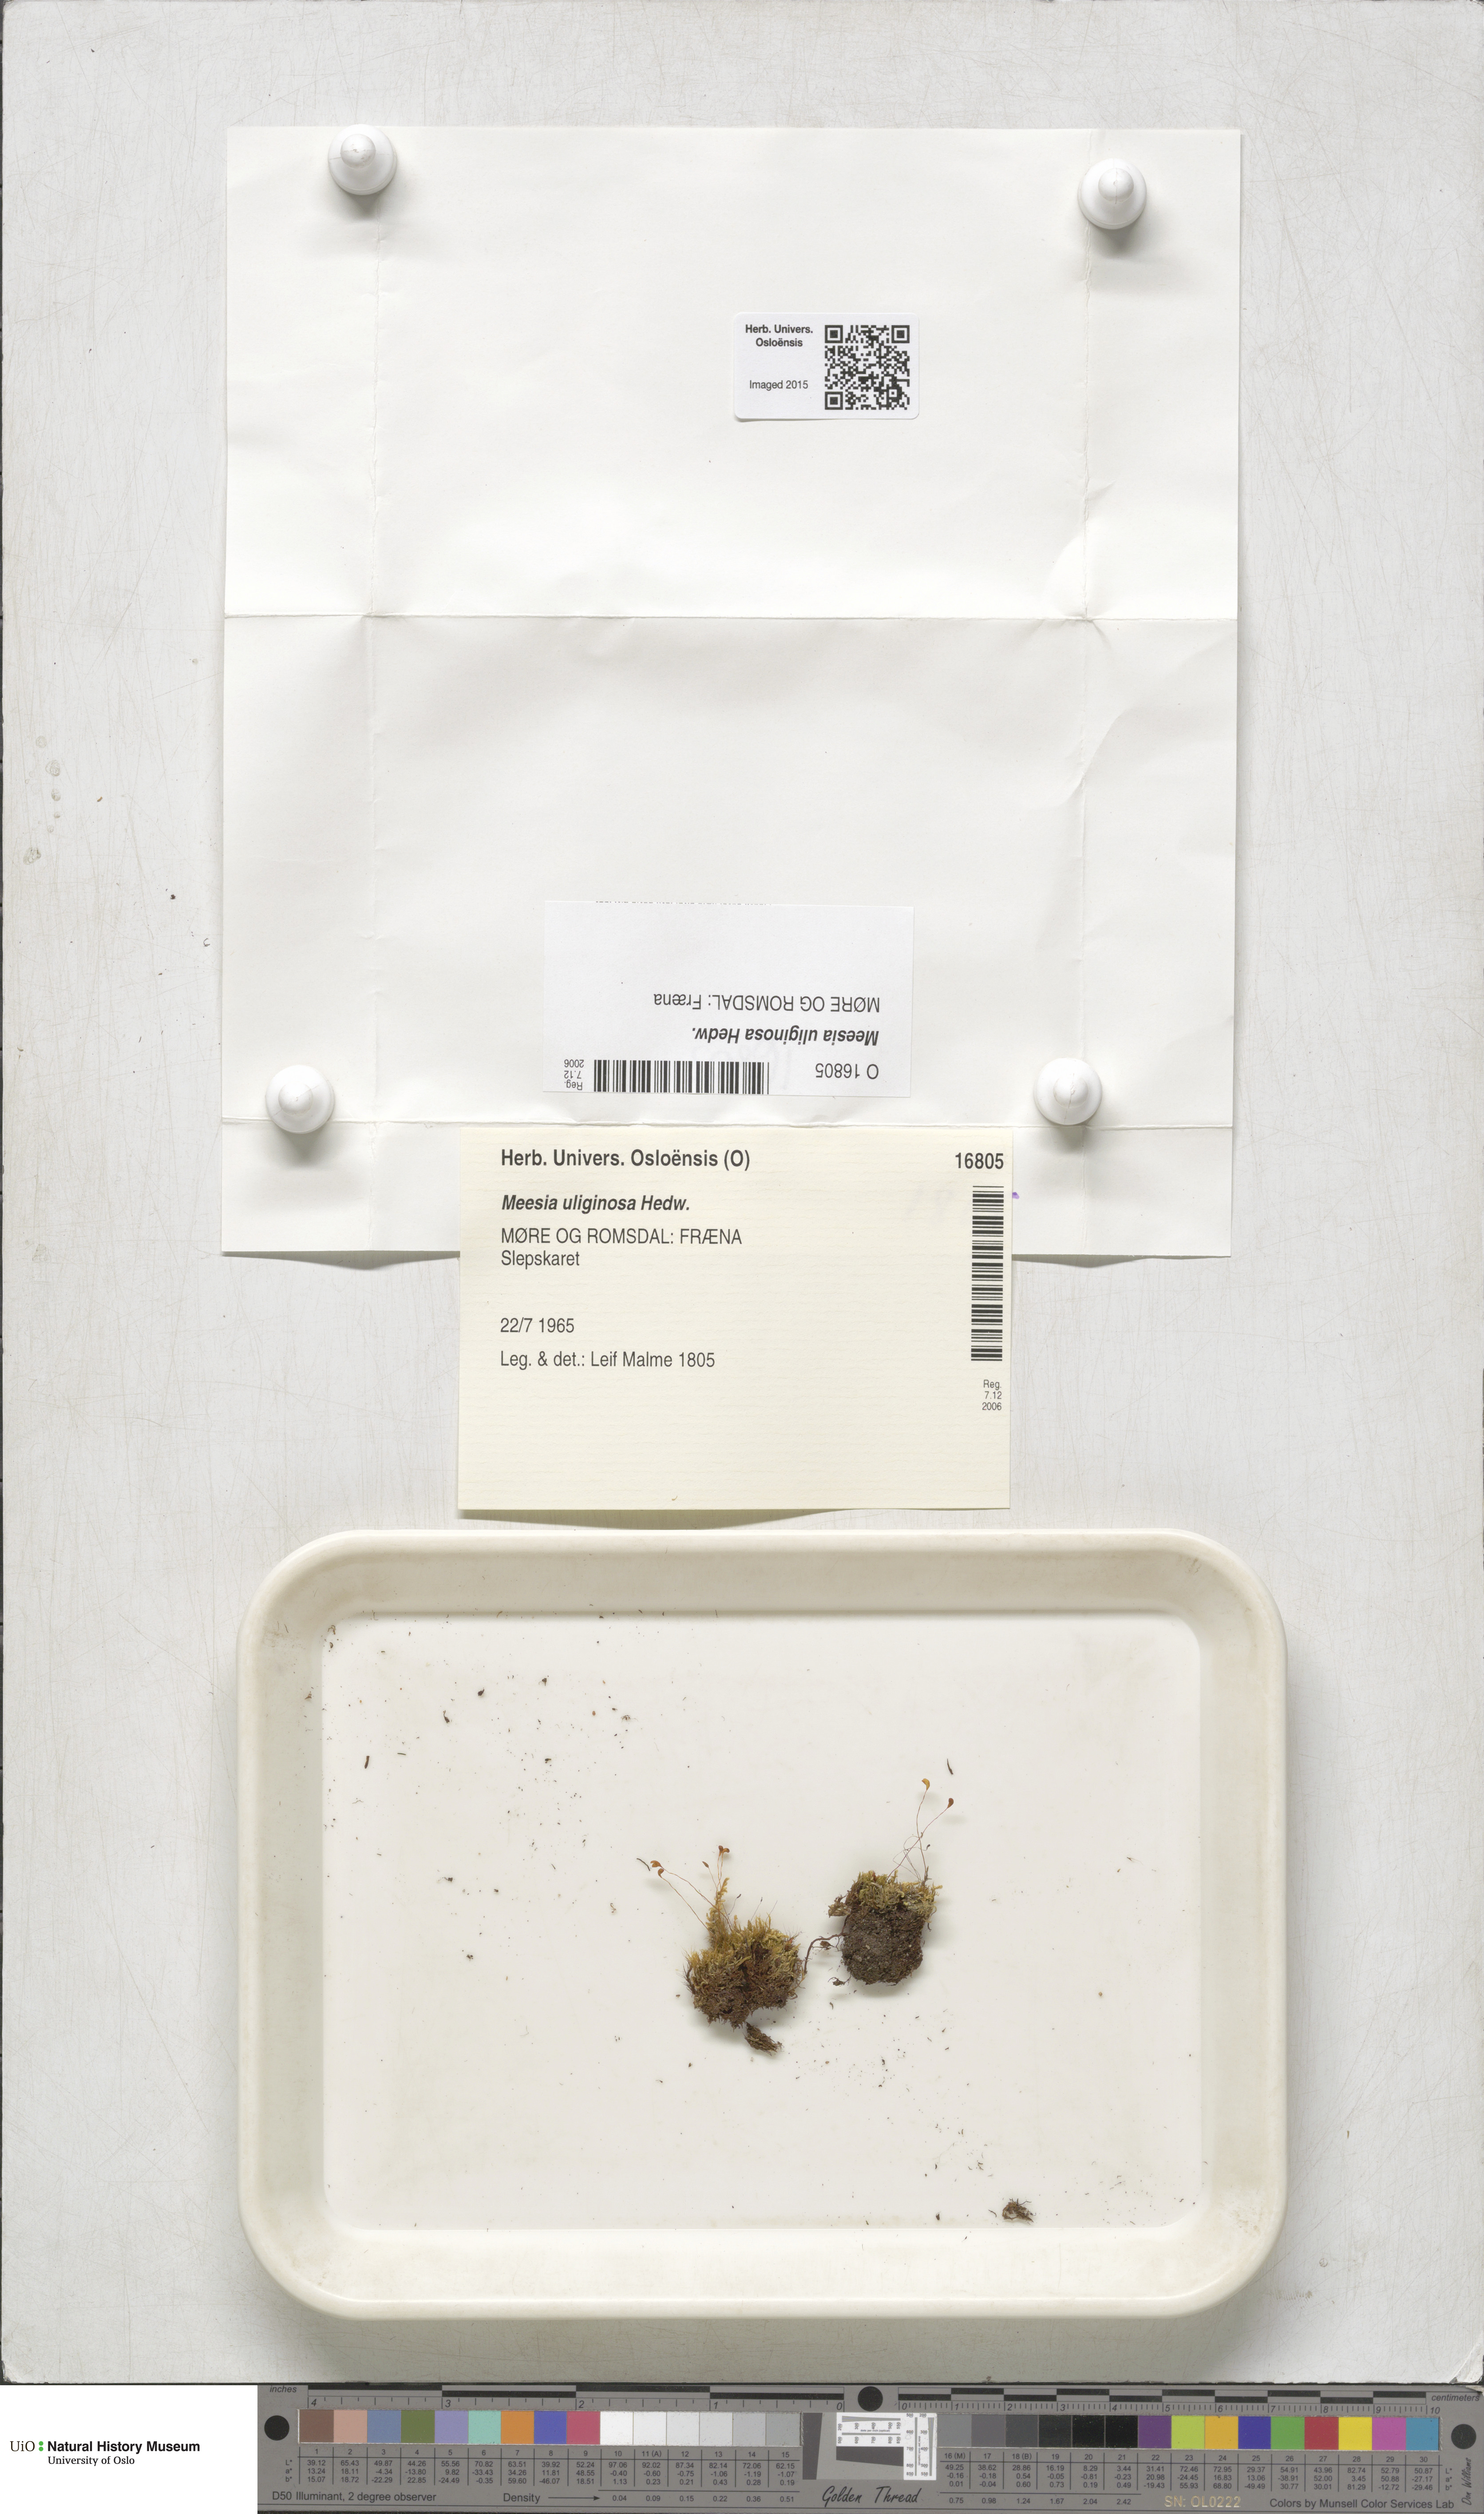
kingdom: Plantae
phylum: Bryophyta
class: Bryopsida
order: Splachnales
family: Meesiaceae
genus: Meesia
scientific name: Meesia uliginosa
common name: Capillary thread moss
